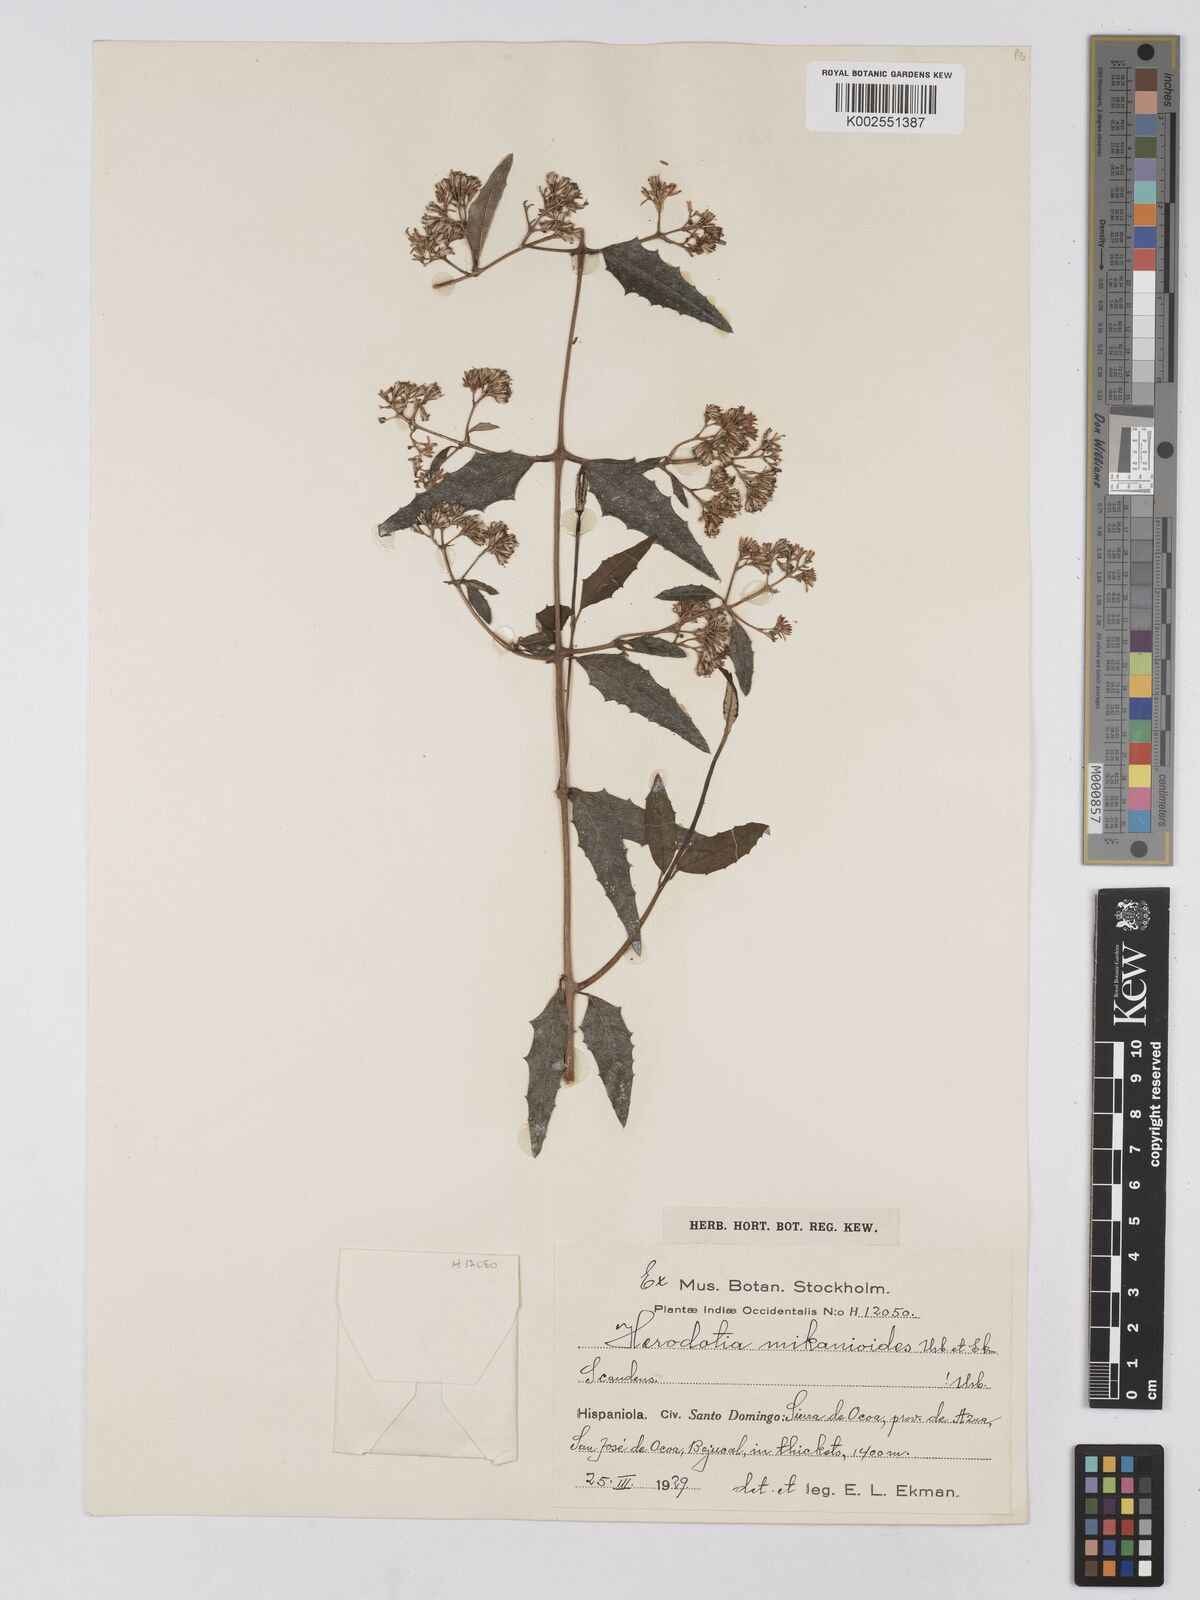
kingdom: Plantae
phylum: Tracheophyta
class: Magnoliopsida
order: Asterales
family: Asteraceae
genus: Ekmaniopappus
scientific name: Ekmaniopappus mikanioides
